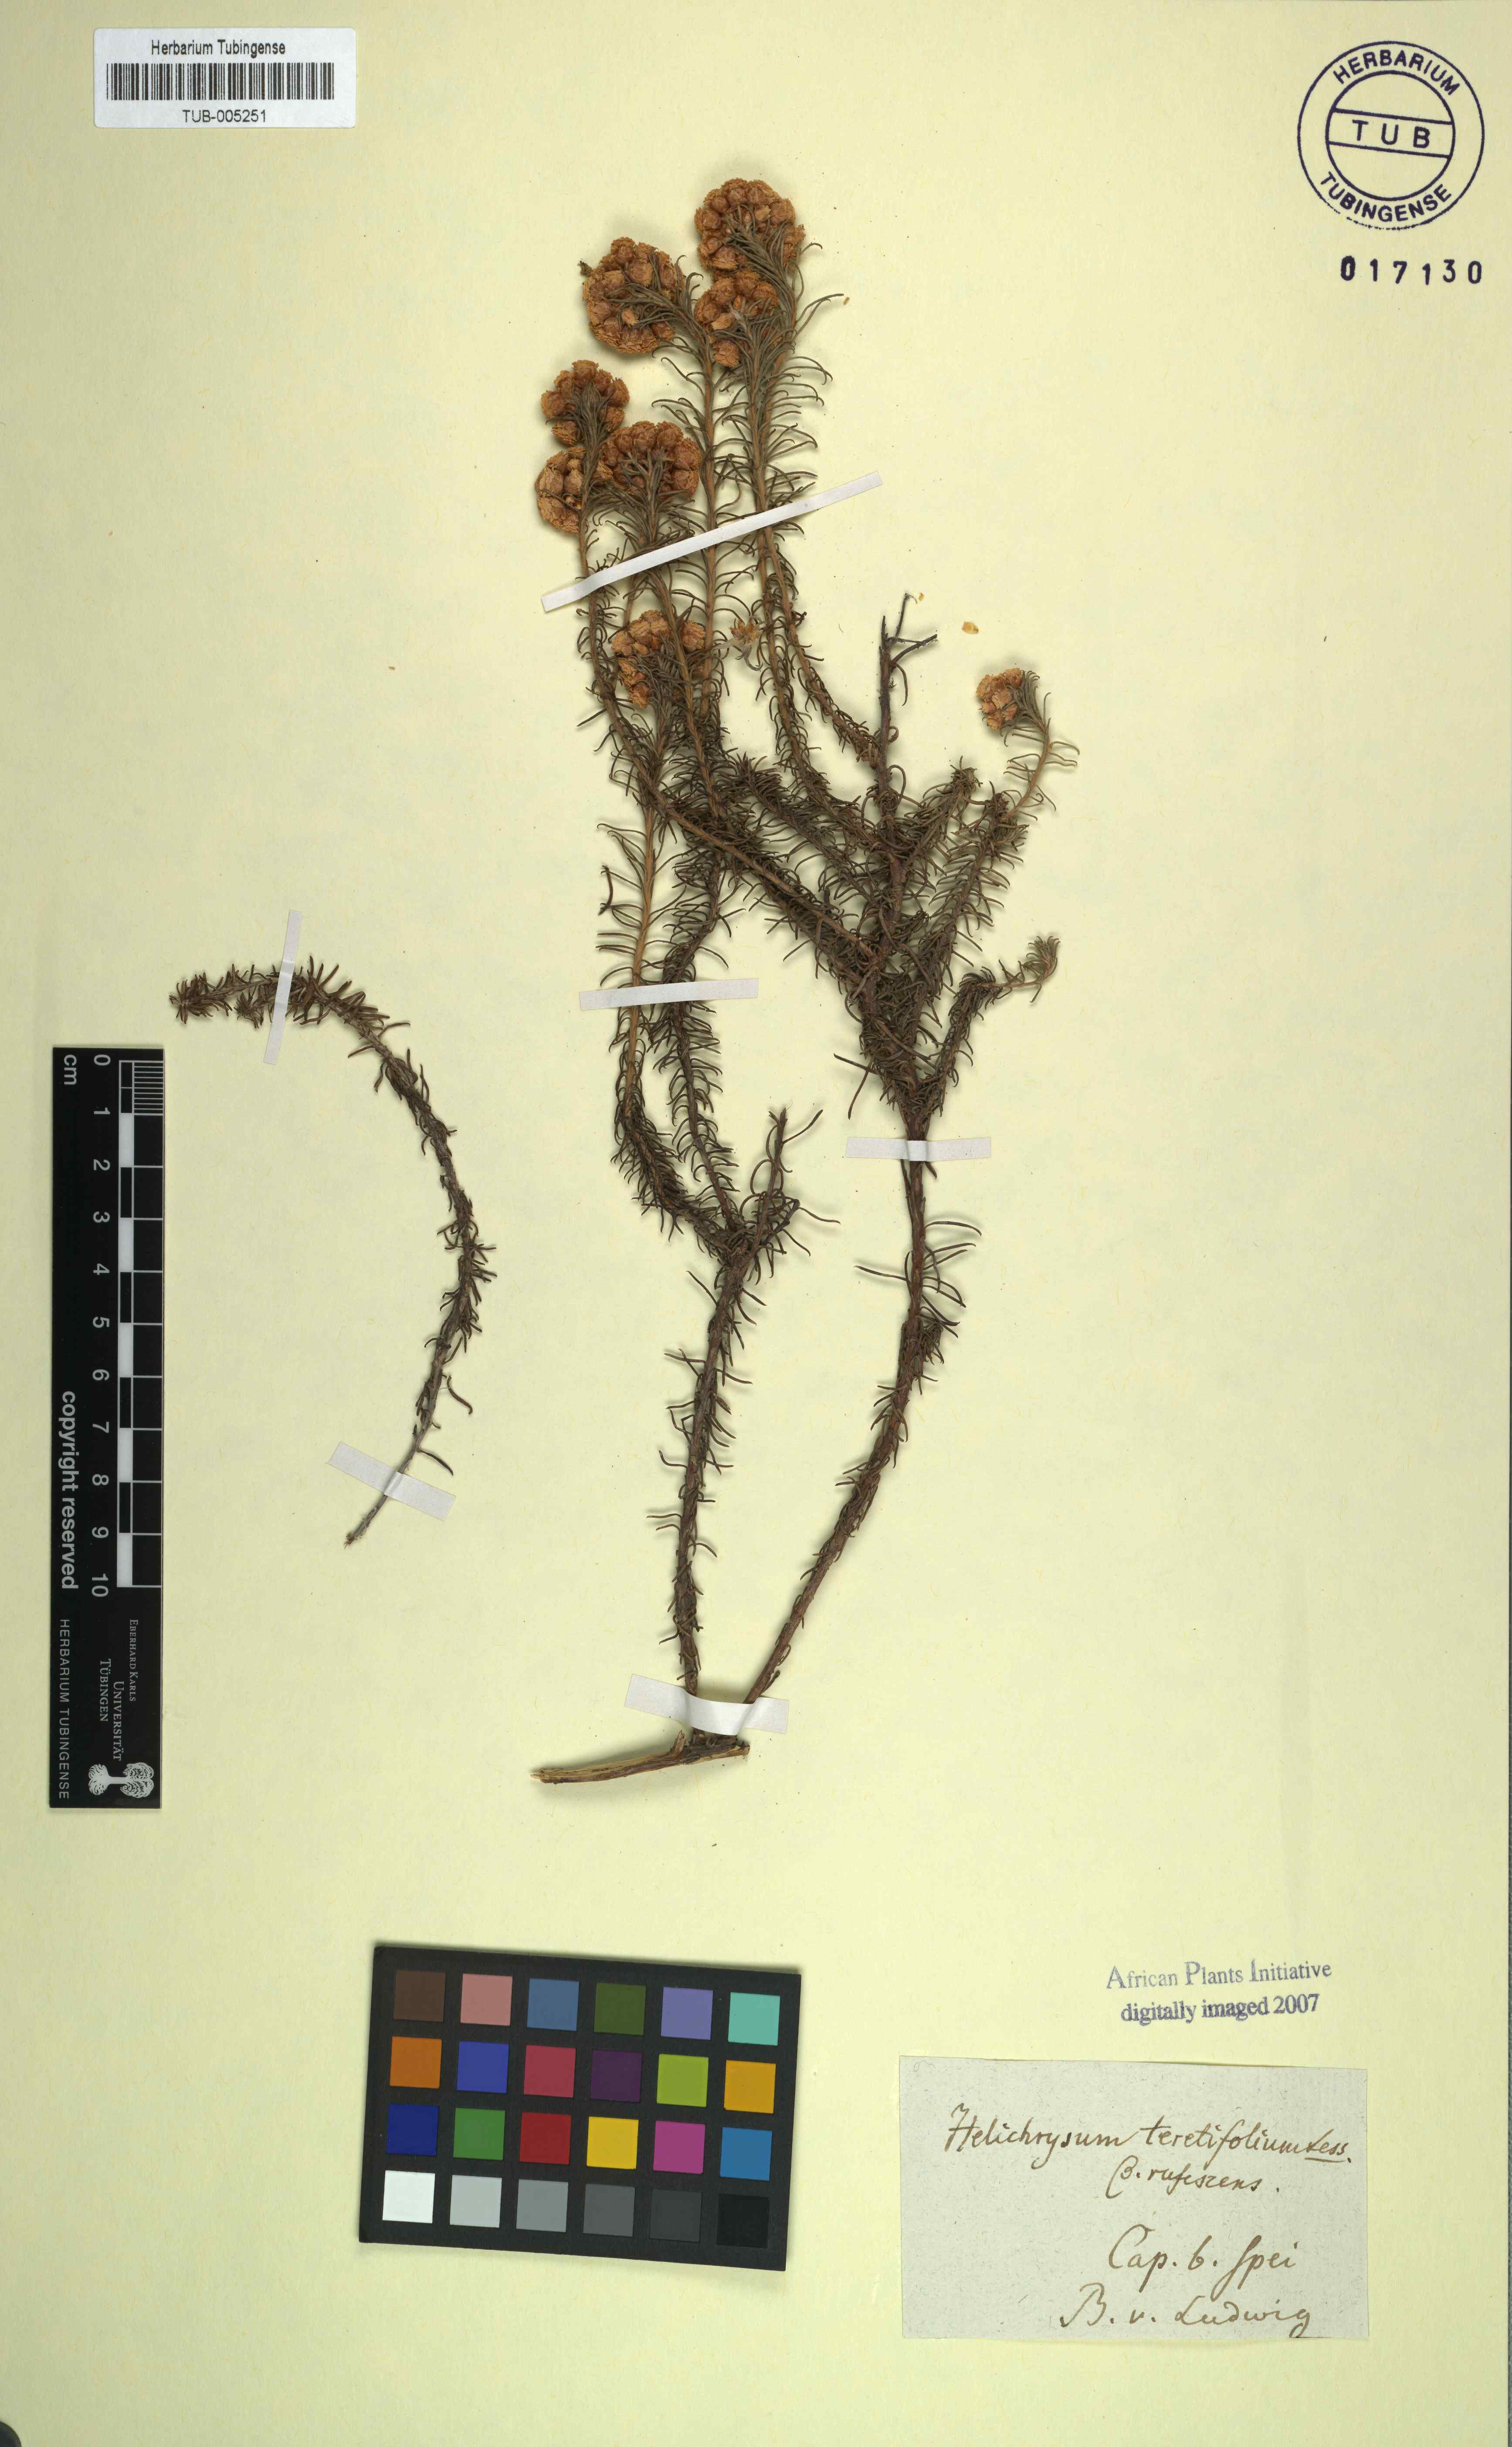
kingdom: Plantae
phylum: Tracheophyta
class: Magnoliopsida
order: Asterales
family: Asteraceae
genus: Helichrysum
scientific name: Helichrysum
